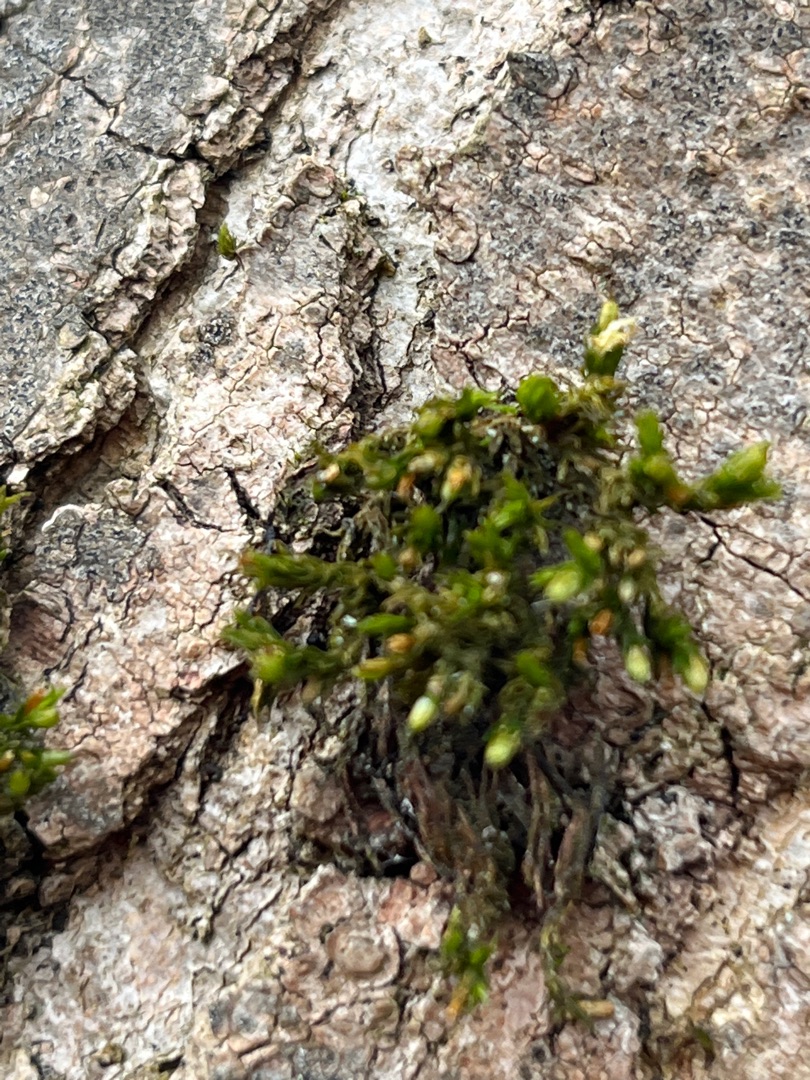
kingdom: Plantae
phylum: Bryophyta
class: Bryopsida
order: Orthotrichales
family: Orthotrichaceae
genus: Orthotrichum
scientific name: Orthotrichum
